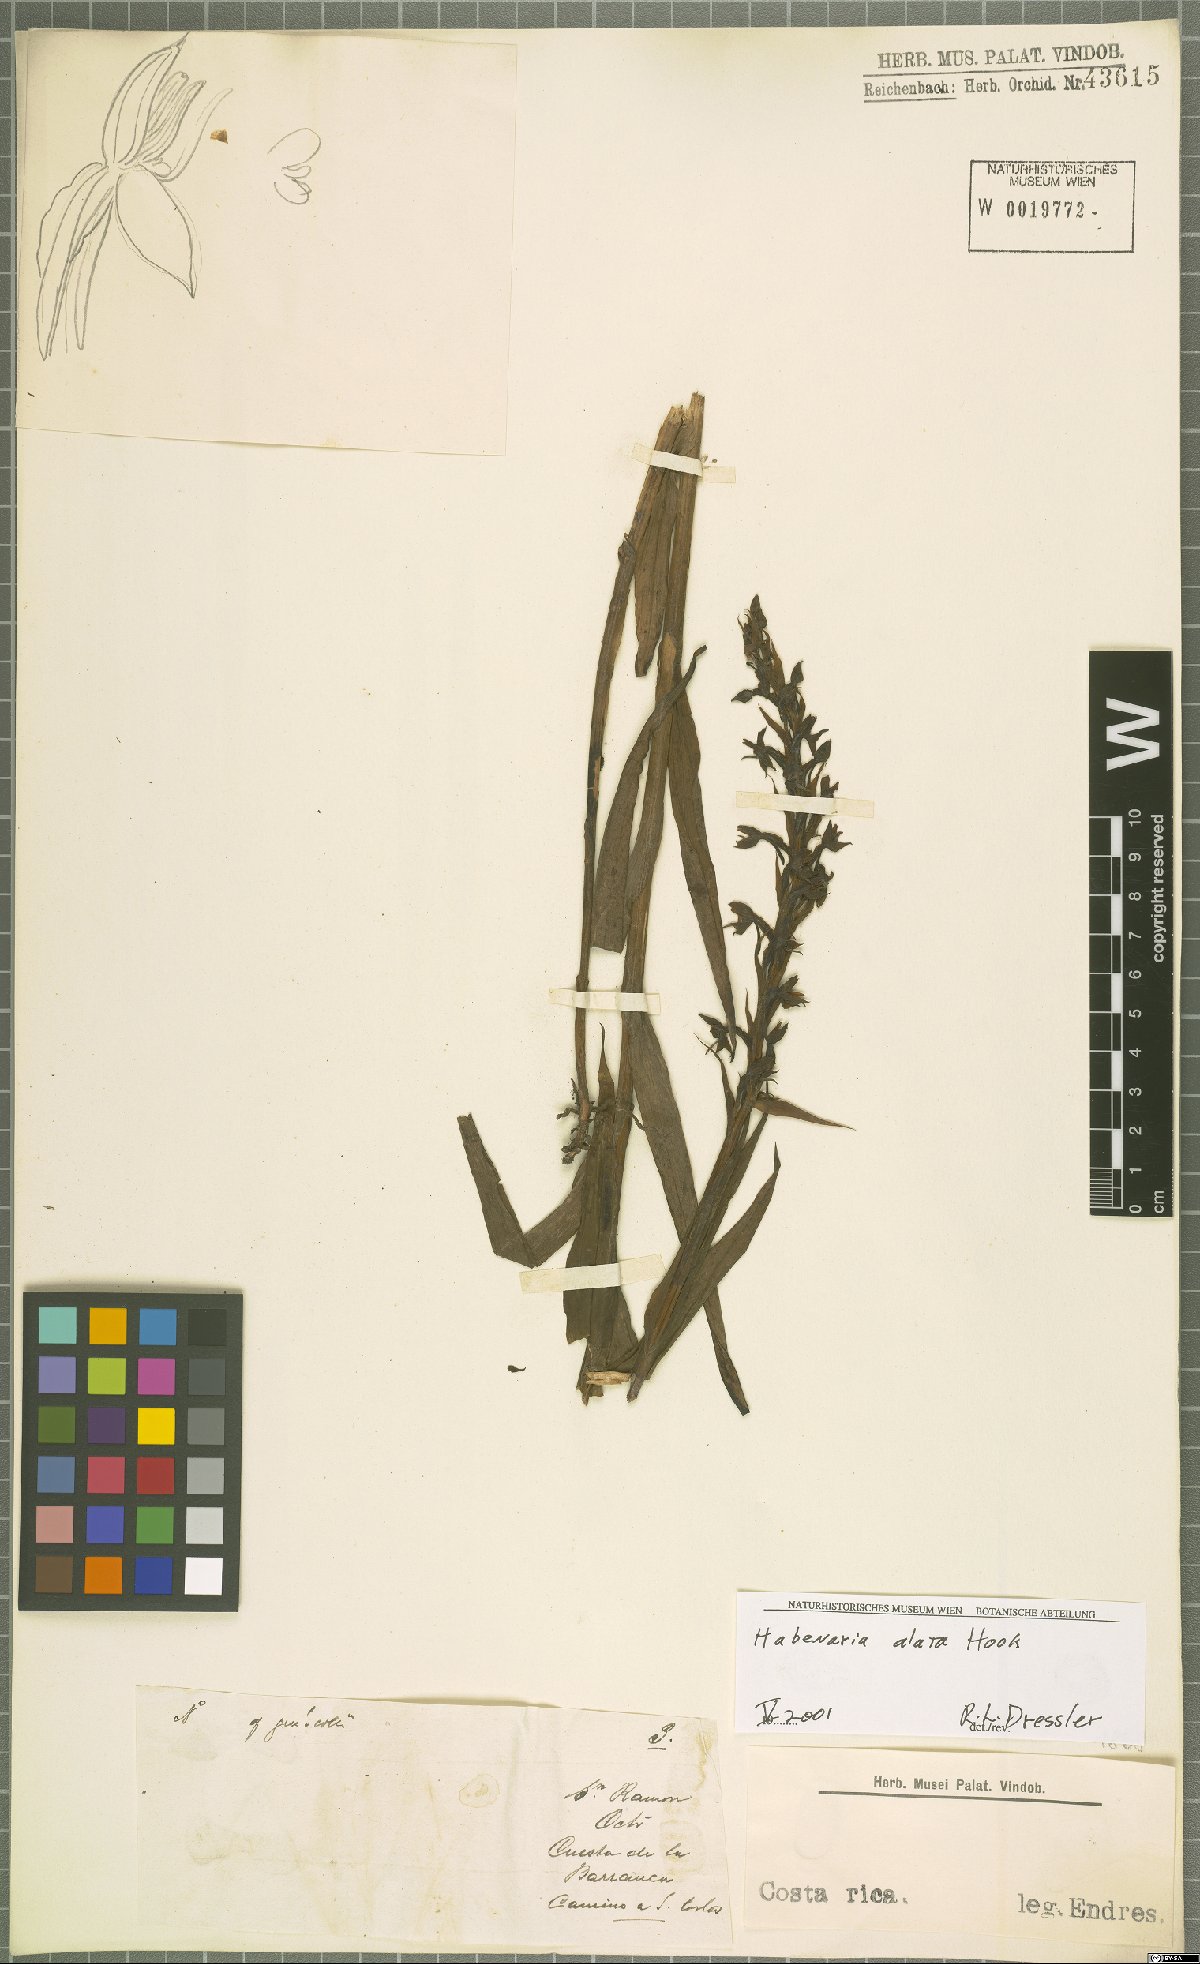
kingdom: Plantae
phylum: Tracheophyta
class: Liliopsida
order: Asparagales
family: Orchidaceae
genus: Habenaria
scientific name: Habenaria alata
